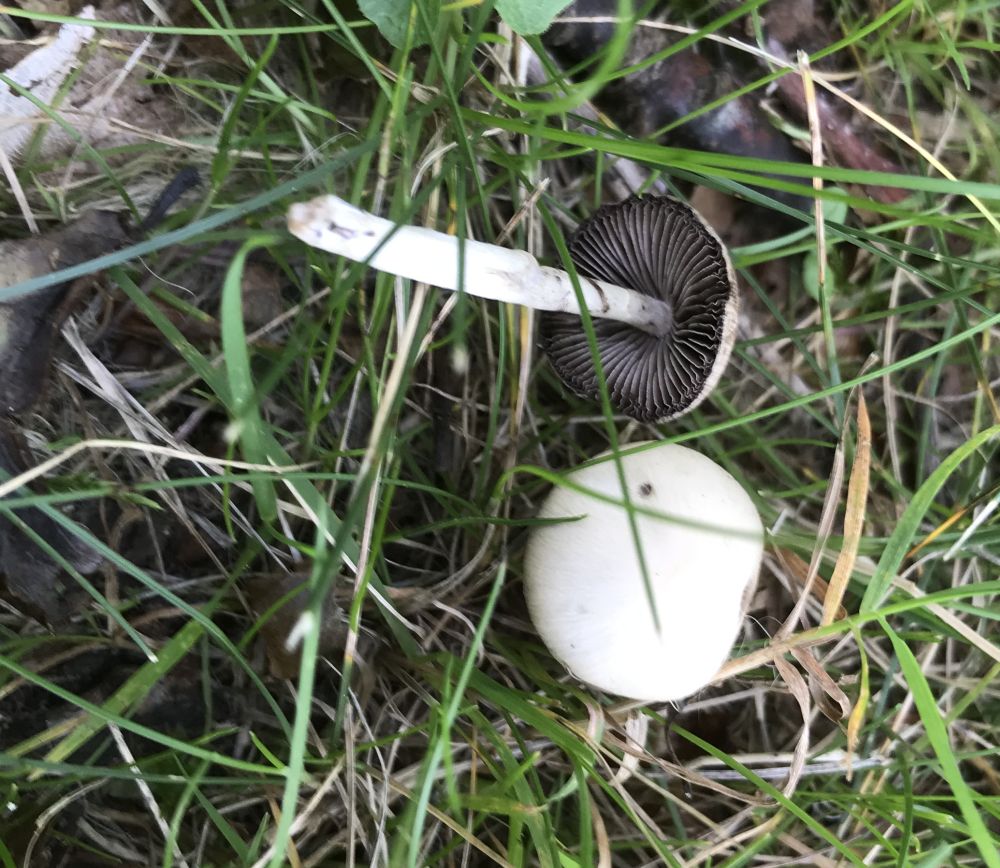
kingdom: Fungi
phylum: Basidiomycota
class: Agaricomycetes
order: Agaricales
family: Psathyrellaceae
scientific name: Psathyrellaceae
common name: mørkhatfamilien
